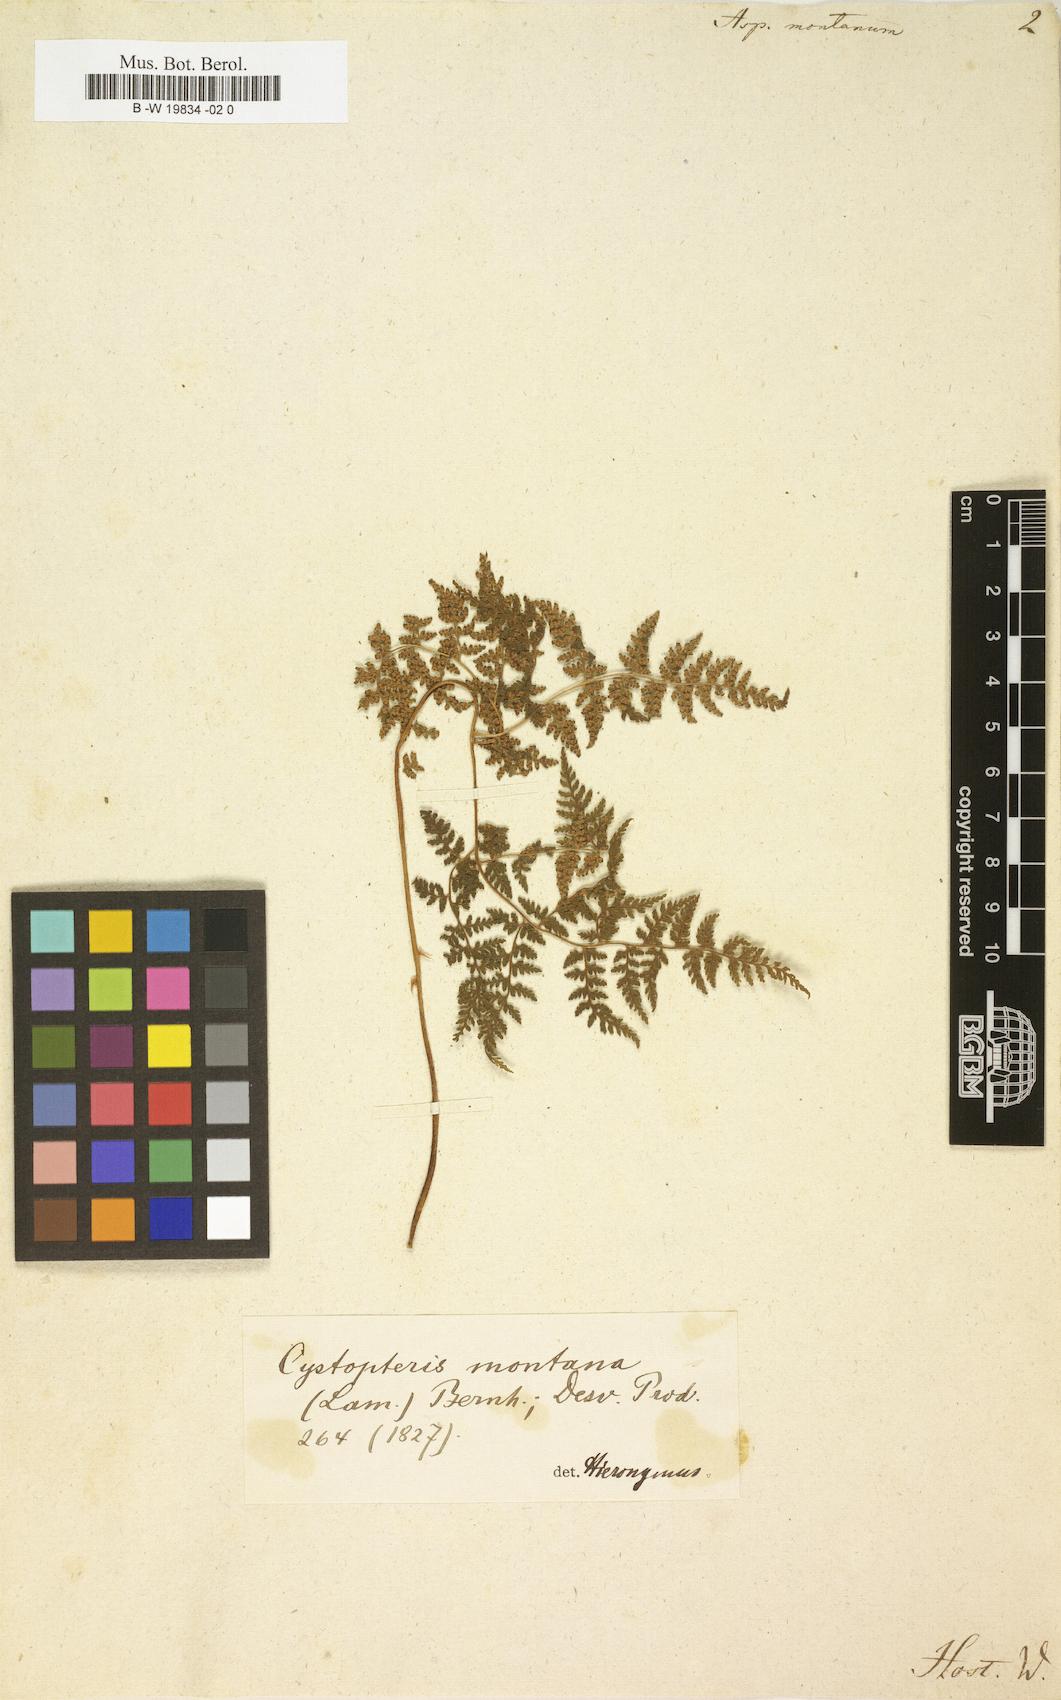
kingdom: Plantae
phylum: Tracheophyta
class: Polypodiopsida
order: Polypodiales
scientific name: Polypodiales
